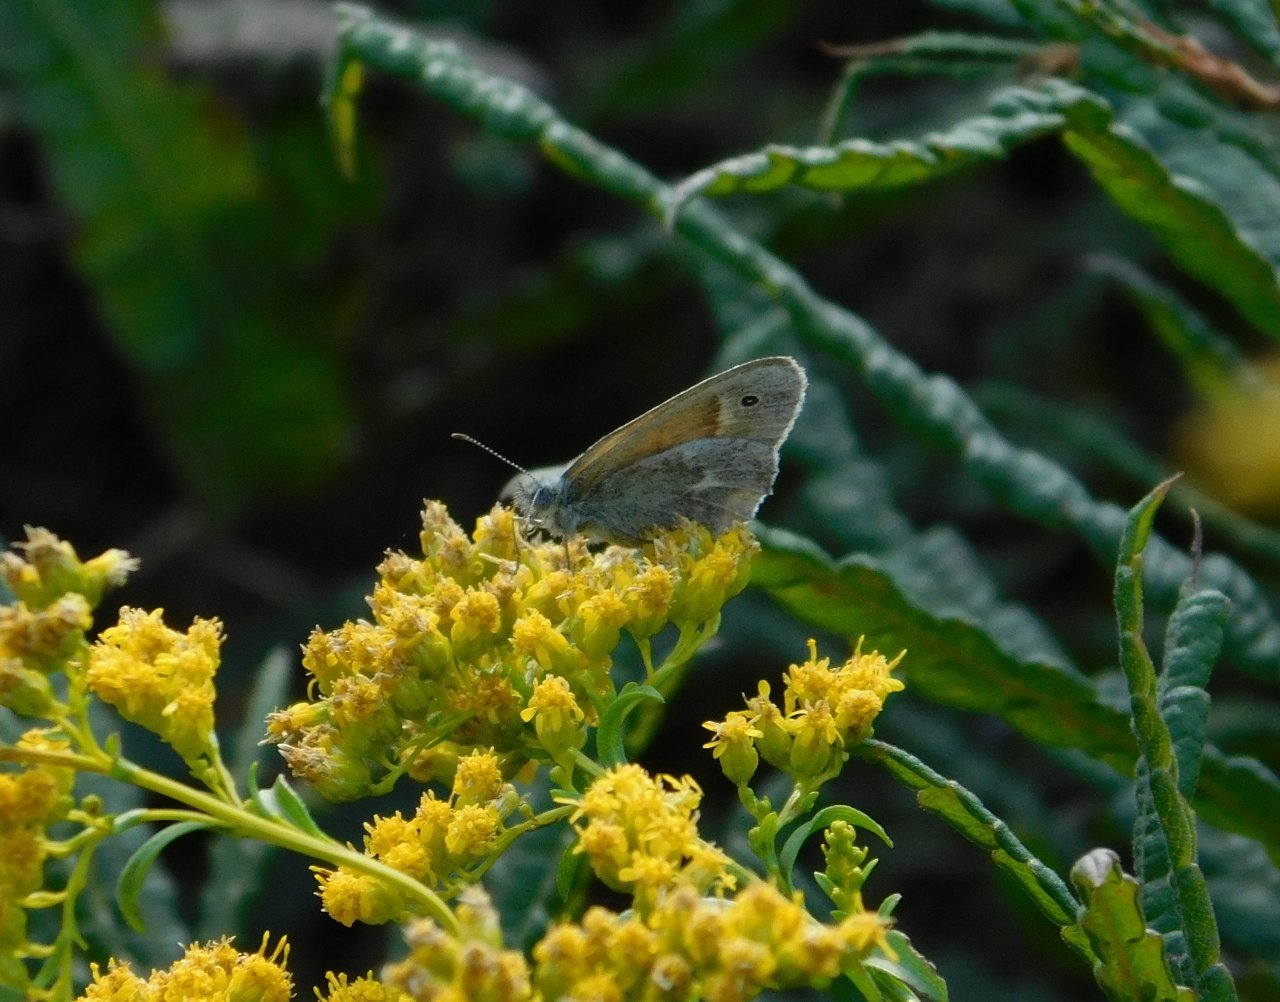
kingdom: Animalia
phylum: Arthropoda
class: Insecta
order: Lepidoptera
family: Nymphalidae
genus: Coenonympha
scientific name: Coenonympha tullia
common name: Large Heath
